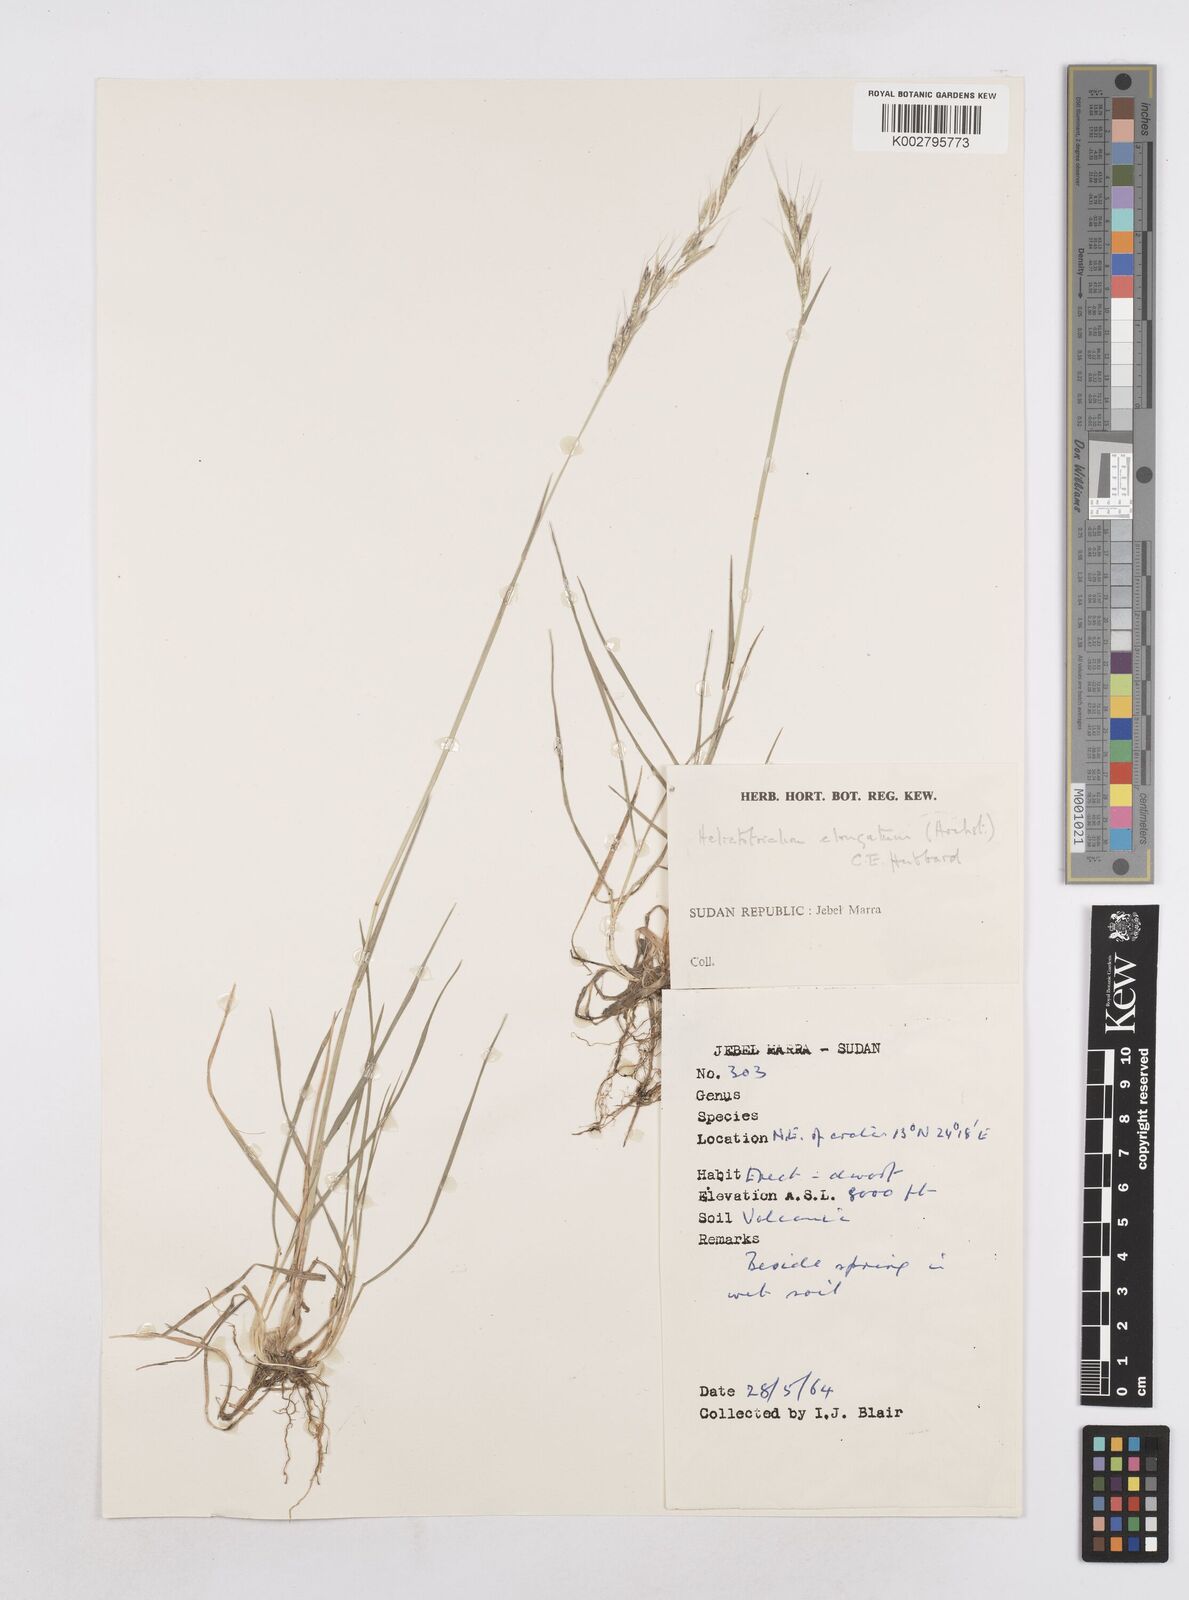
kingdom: Plantae
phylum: Tracheophyta
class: Liliopsida
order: Poales
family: Poaceae
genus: Trisetopsis
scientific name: Trisetopsis elongata
